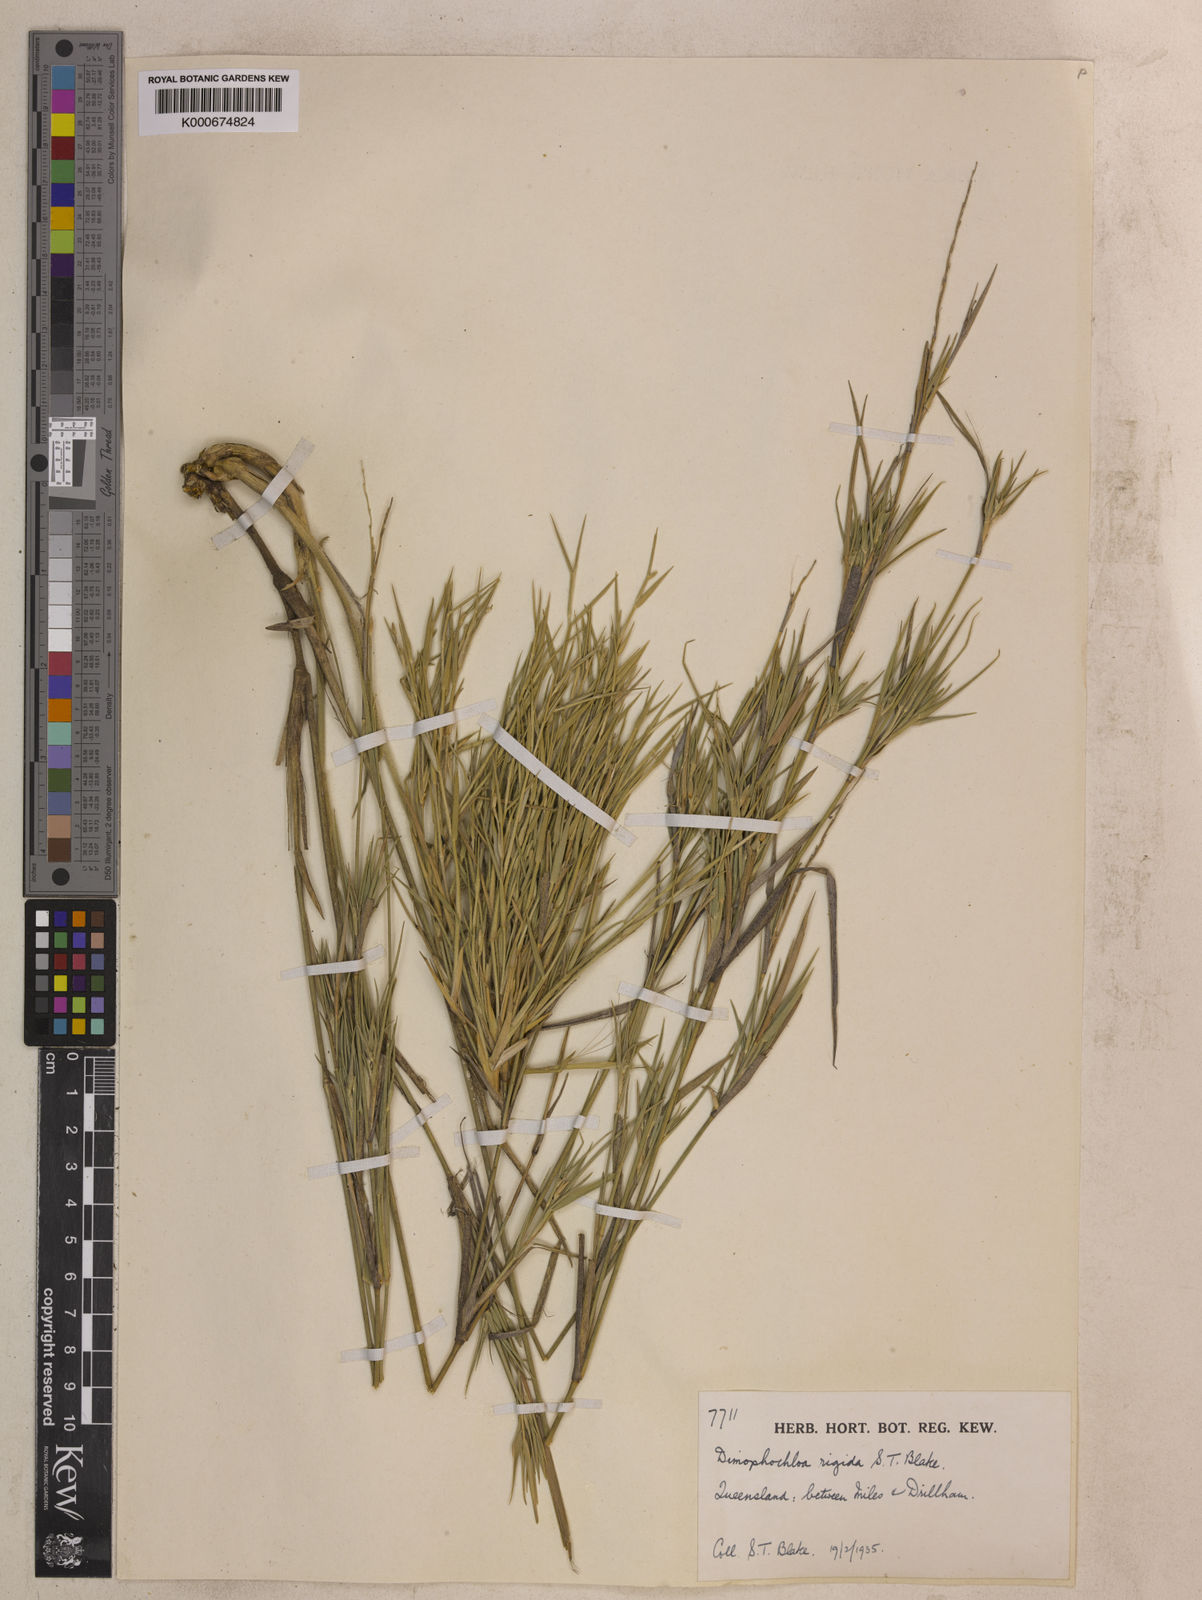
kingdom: Plantae
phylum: Tracheophyta
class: Liliopsida
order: Poales
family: Poaceae
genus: Dimorphochloa
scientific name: Dimorphochloa rigida
